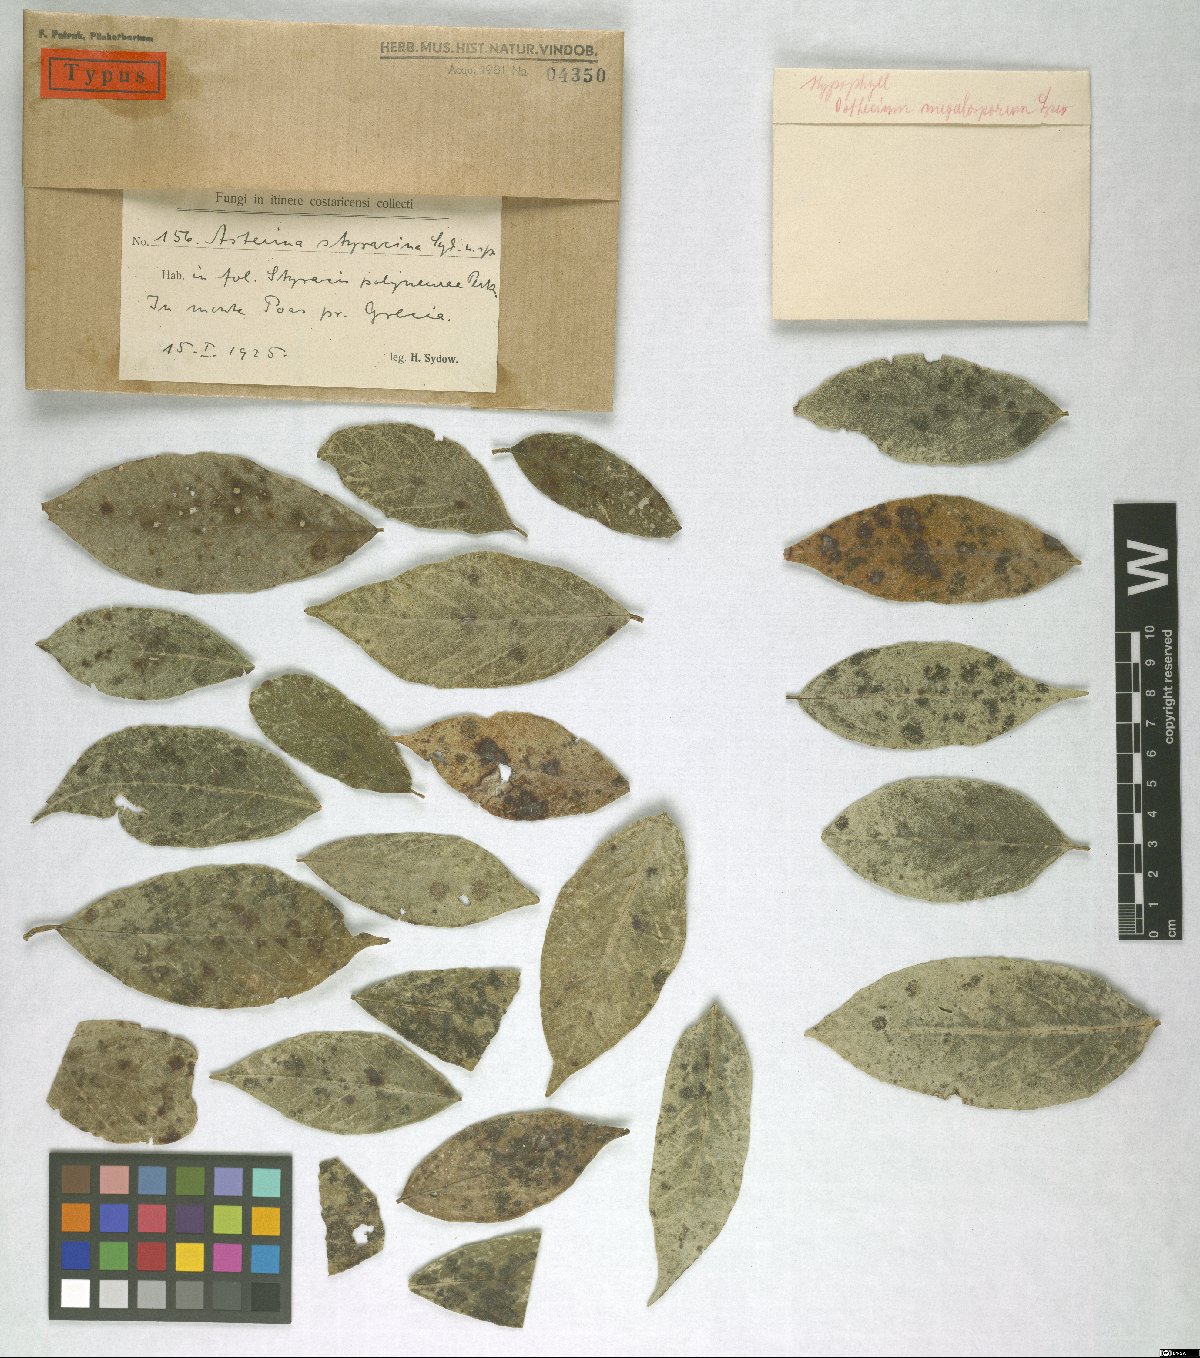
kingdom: Fungi
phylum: Ascomycota
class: Dothideomycetes
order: Asterinales
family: Asterinaceae
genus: Asterina
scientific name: Asterina styracina
